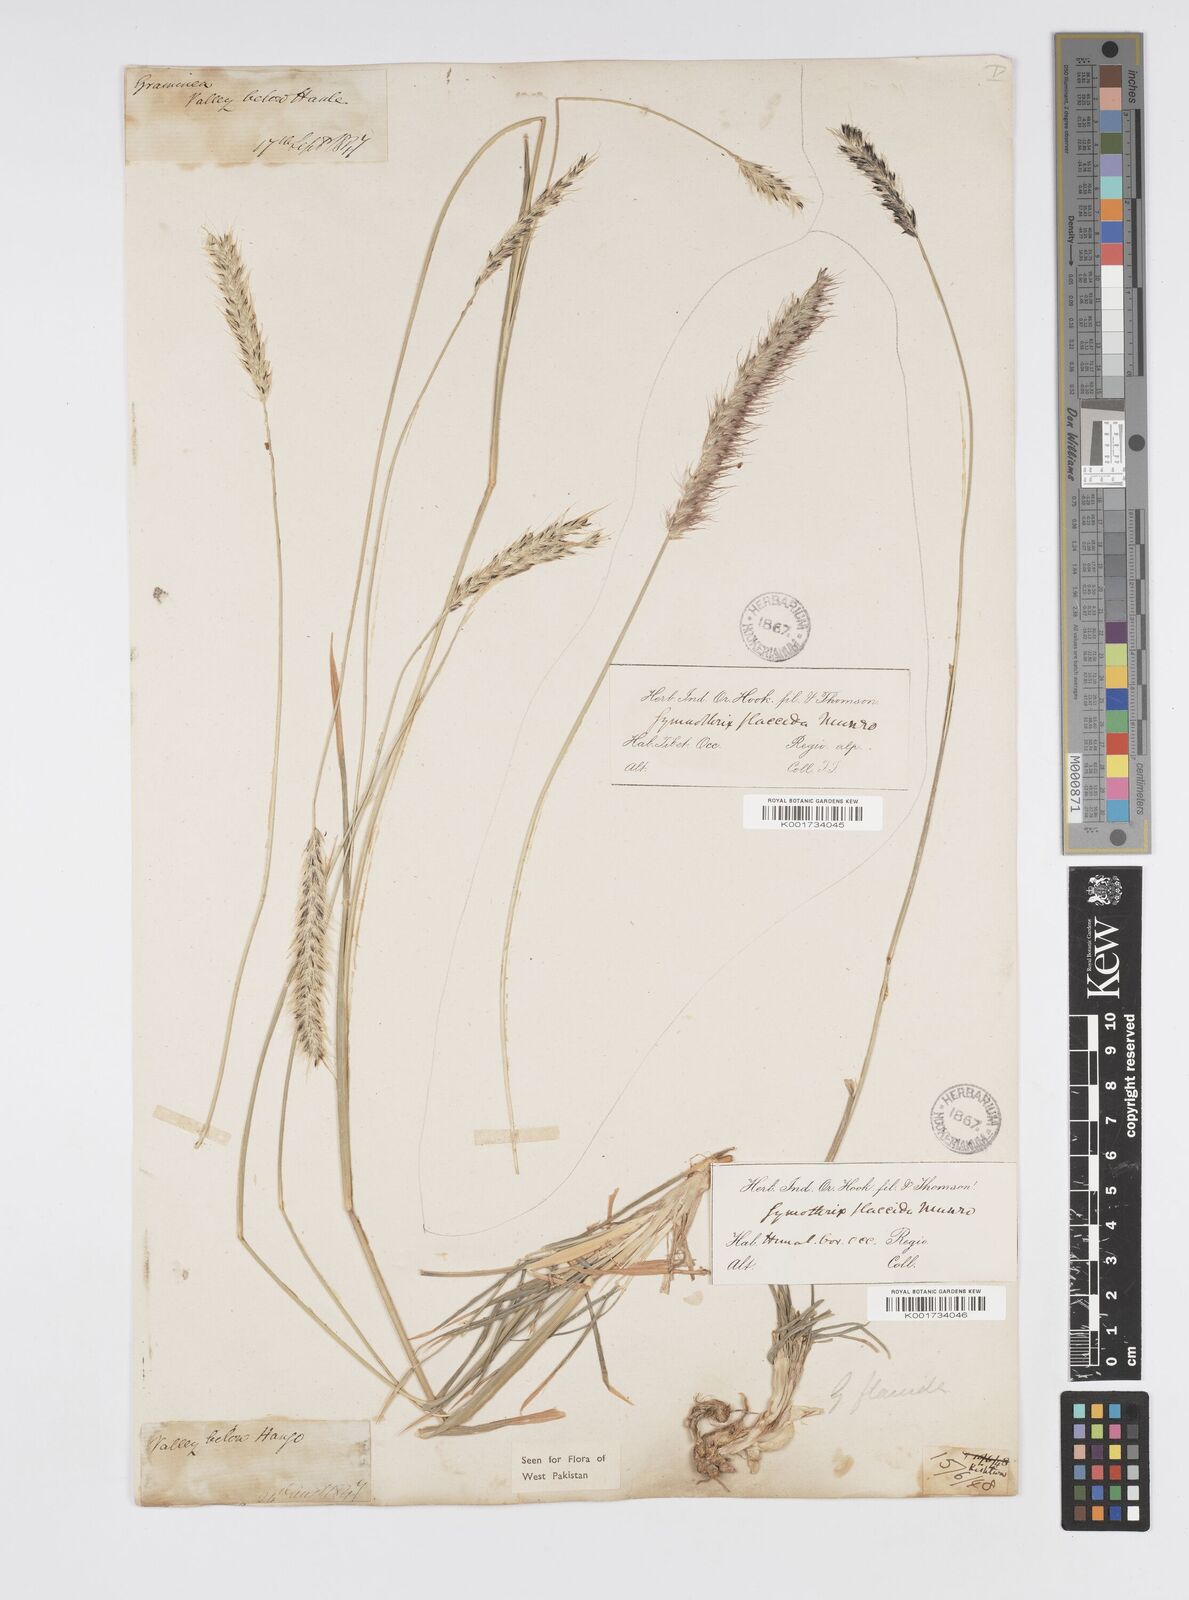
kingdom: Plantae
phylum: Tracheophyta
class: Liliopsida
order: Poales
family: Poaceae
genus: Cenchrus
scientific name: Cenchrus flaccidus
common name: Flaccid grass
